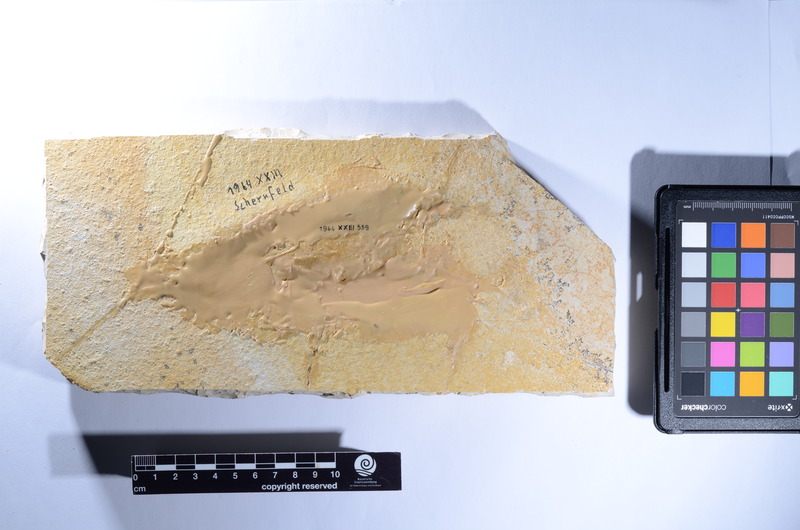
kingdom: Animalia
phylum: Chordata
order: Amiiformes
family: Caturidae
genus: Caturus
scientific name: Caturus
